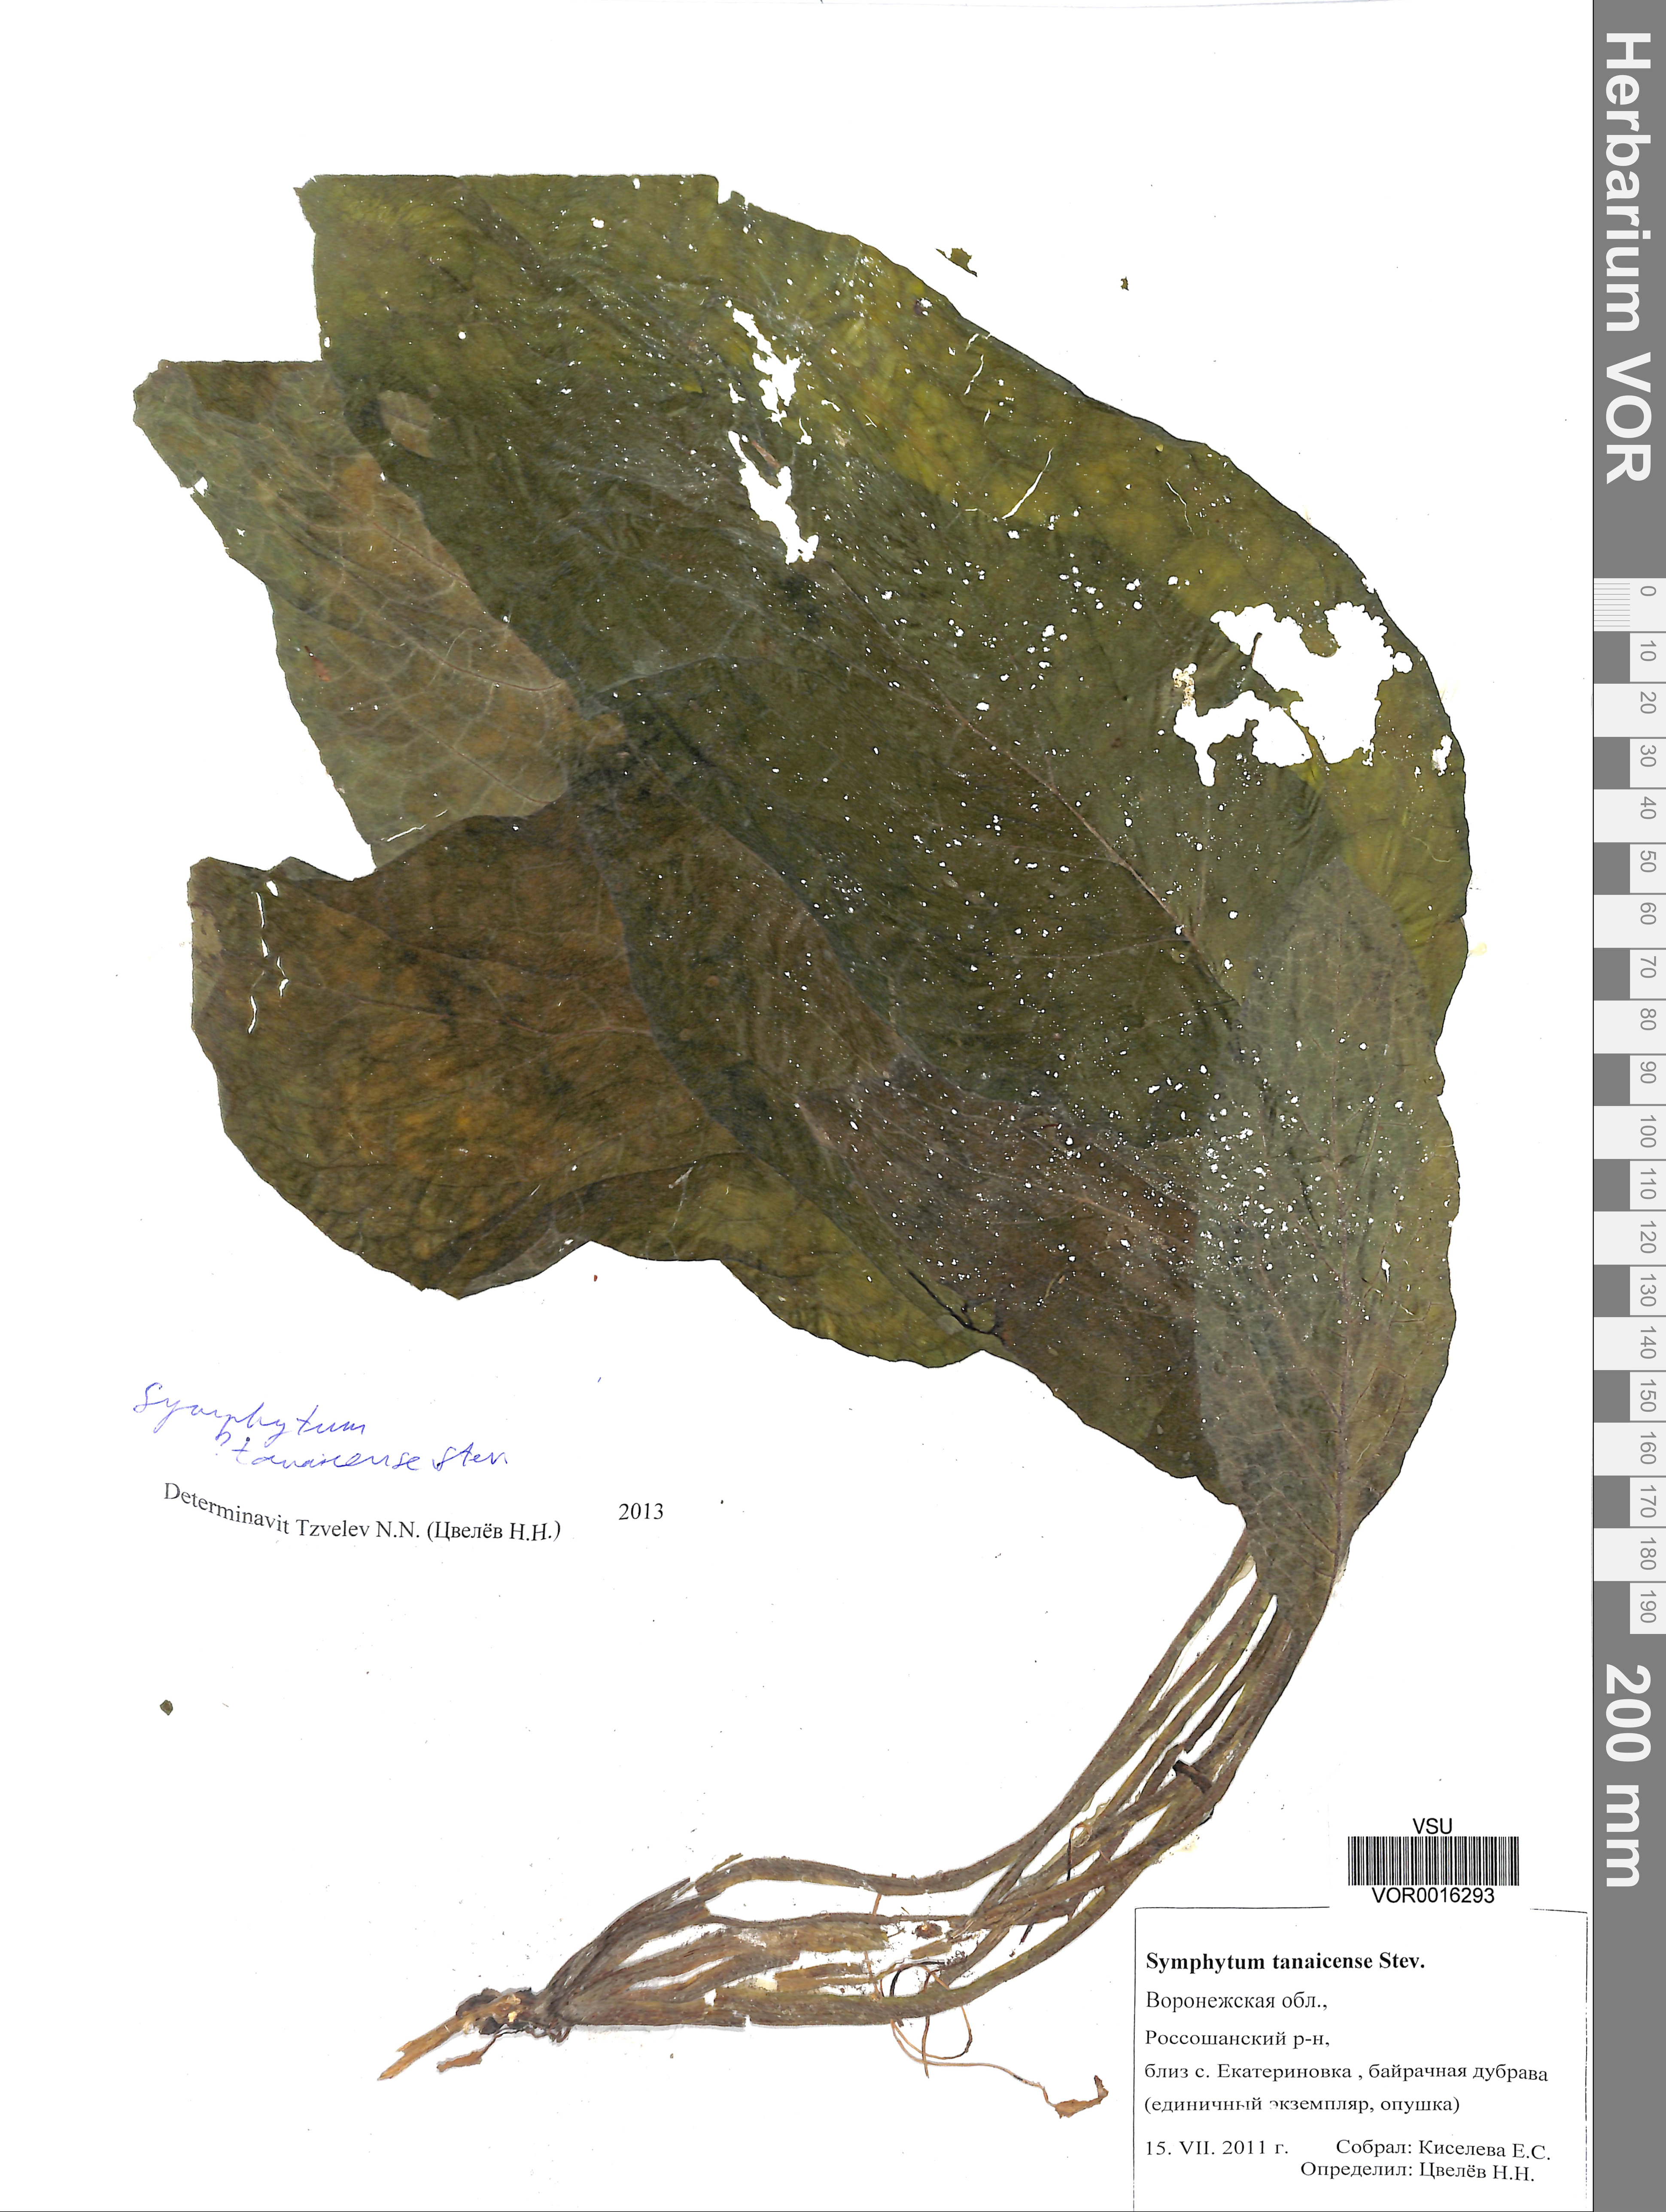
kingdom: Plantae
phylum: Tracheophyta
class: Magnoliopsida
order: Boraginales
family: Boraginaceae
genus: Symphytum
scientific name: Symphytum tauricum
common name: Crimean comfrey
